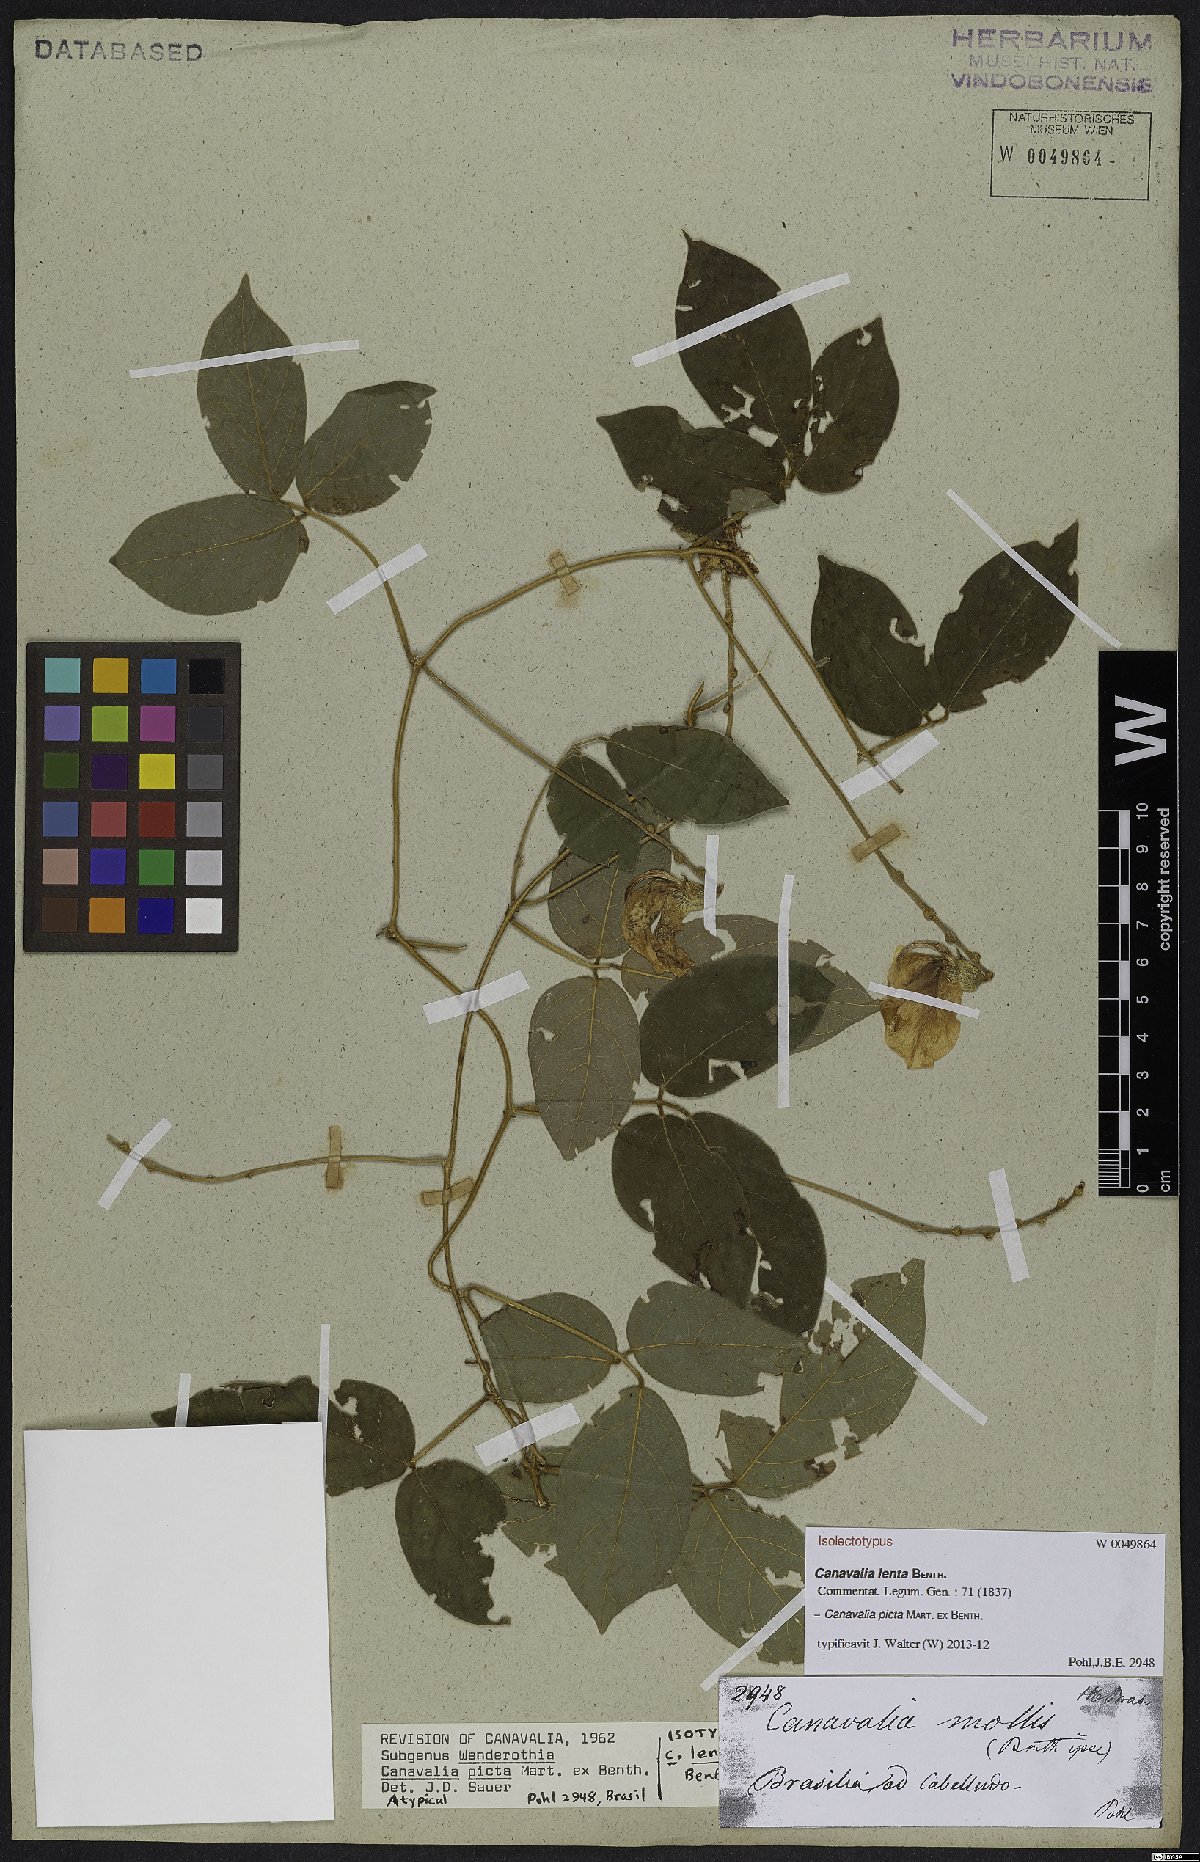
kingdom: Plantae
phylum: Tracheophyta
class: Magnoliopsida
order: Fabales
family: Fabaceae
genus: Canavalia
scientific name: Canavalia picta
